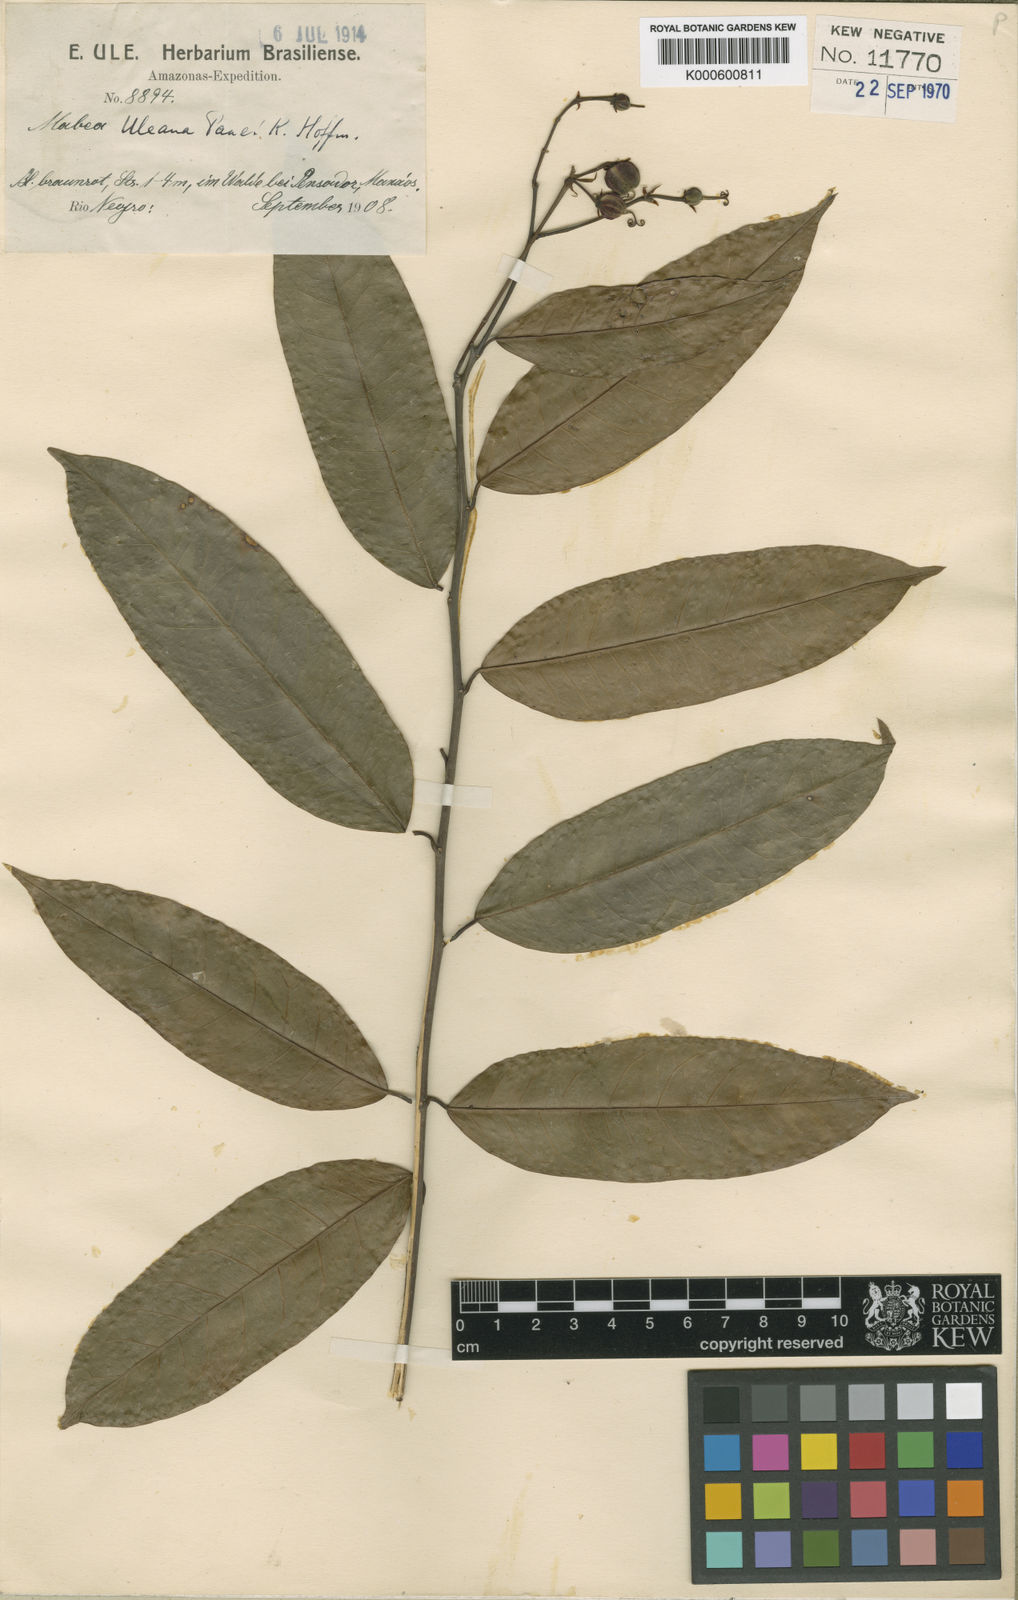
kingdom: Plantae
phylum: Tracheophyta
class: Magnoliopsida
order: Malpighiales
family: Euphorbiaceae
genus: Mabea
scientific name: Mabea uleana
